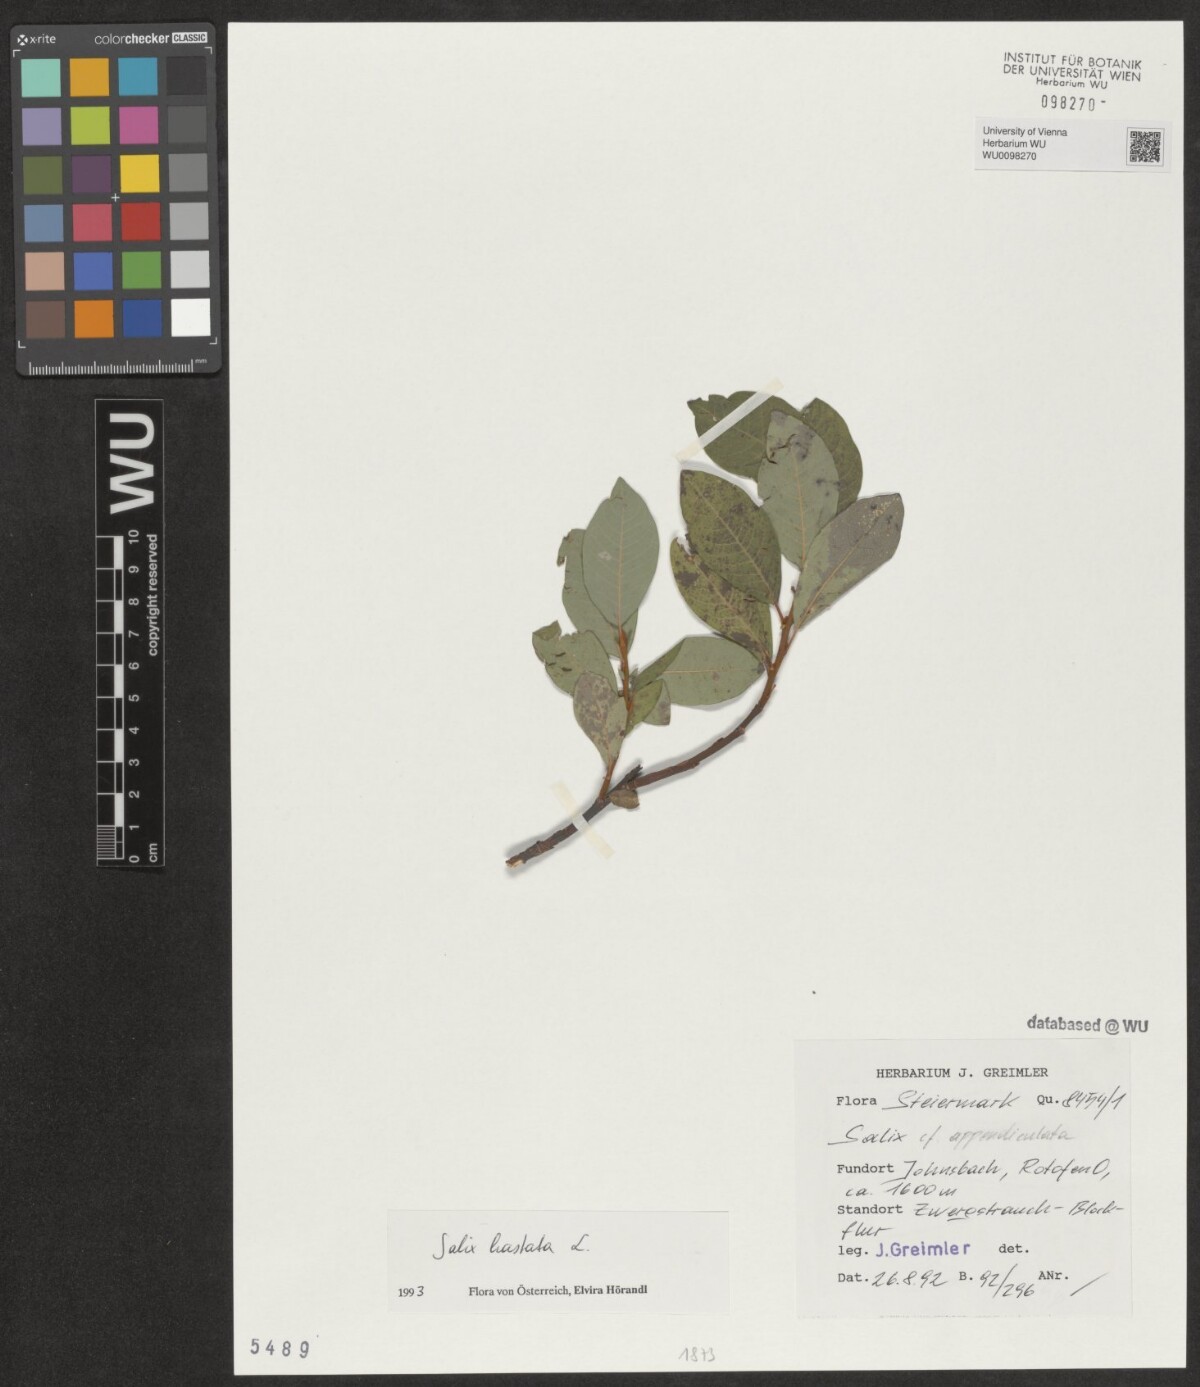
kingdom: Plantae
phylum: Tracheophyta
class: Magnoliopsida
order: Malpighiales
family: Salicaceae
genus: Salix
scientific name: Salix hastata
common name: Halberd willow
